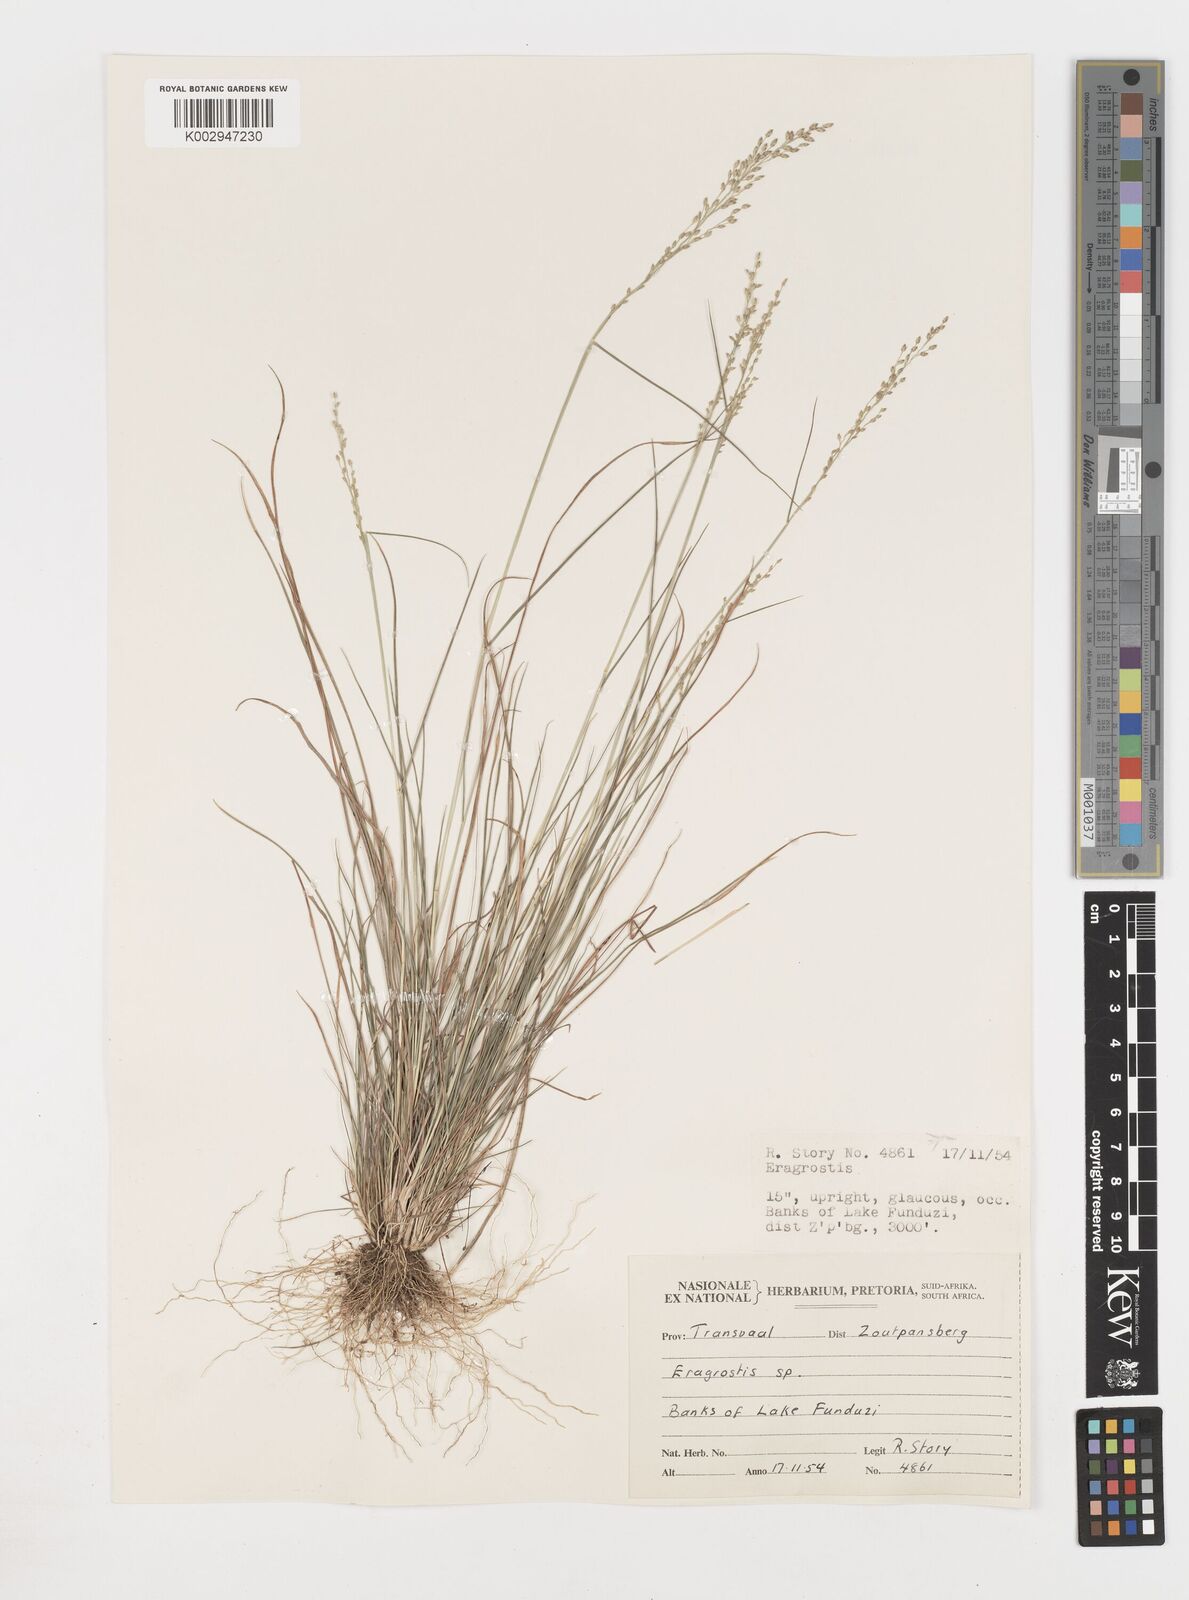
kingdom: Plantae
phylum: Tracheophyta
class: Liliopsida
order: Poales
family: Poaceae
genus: Eragrostis
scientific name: Eragrostis
